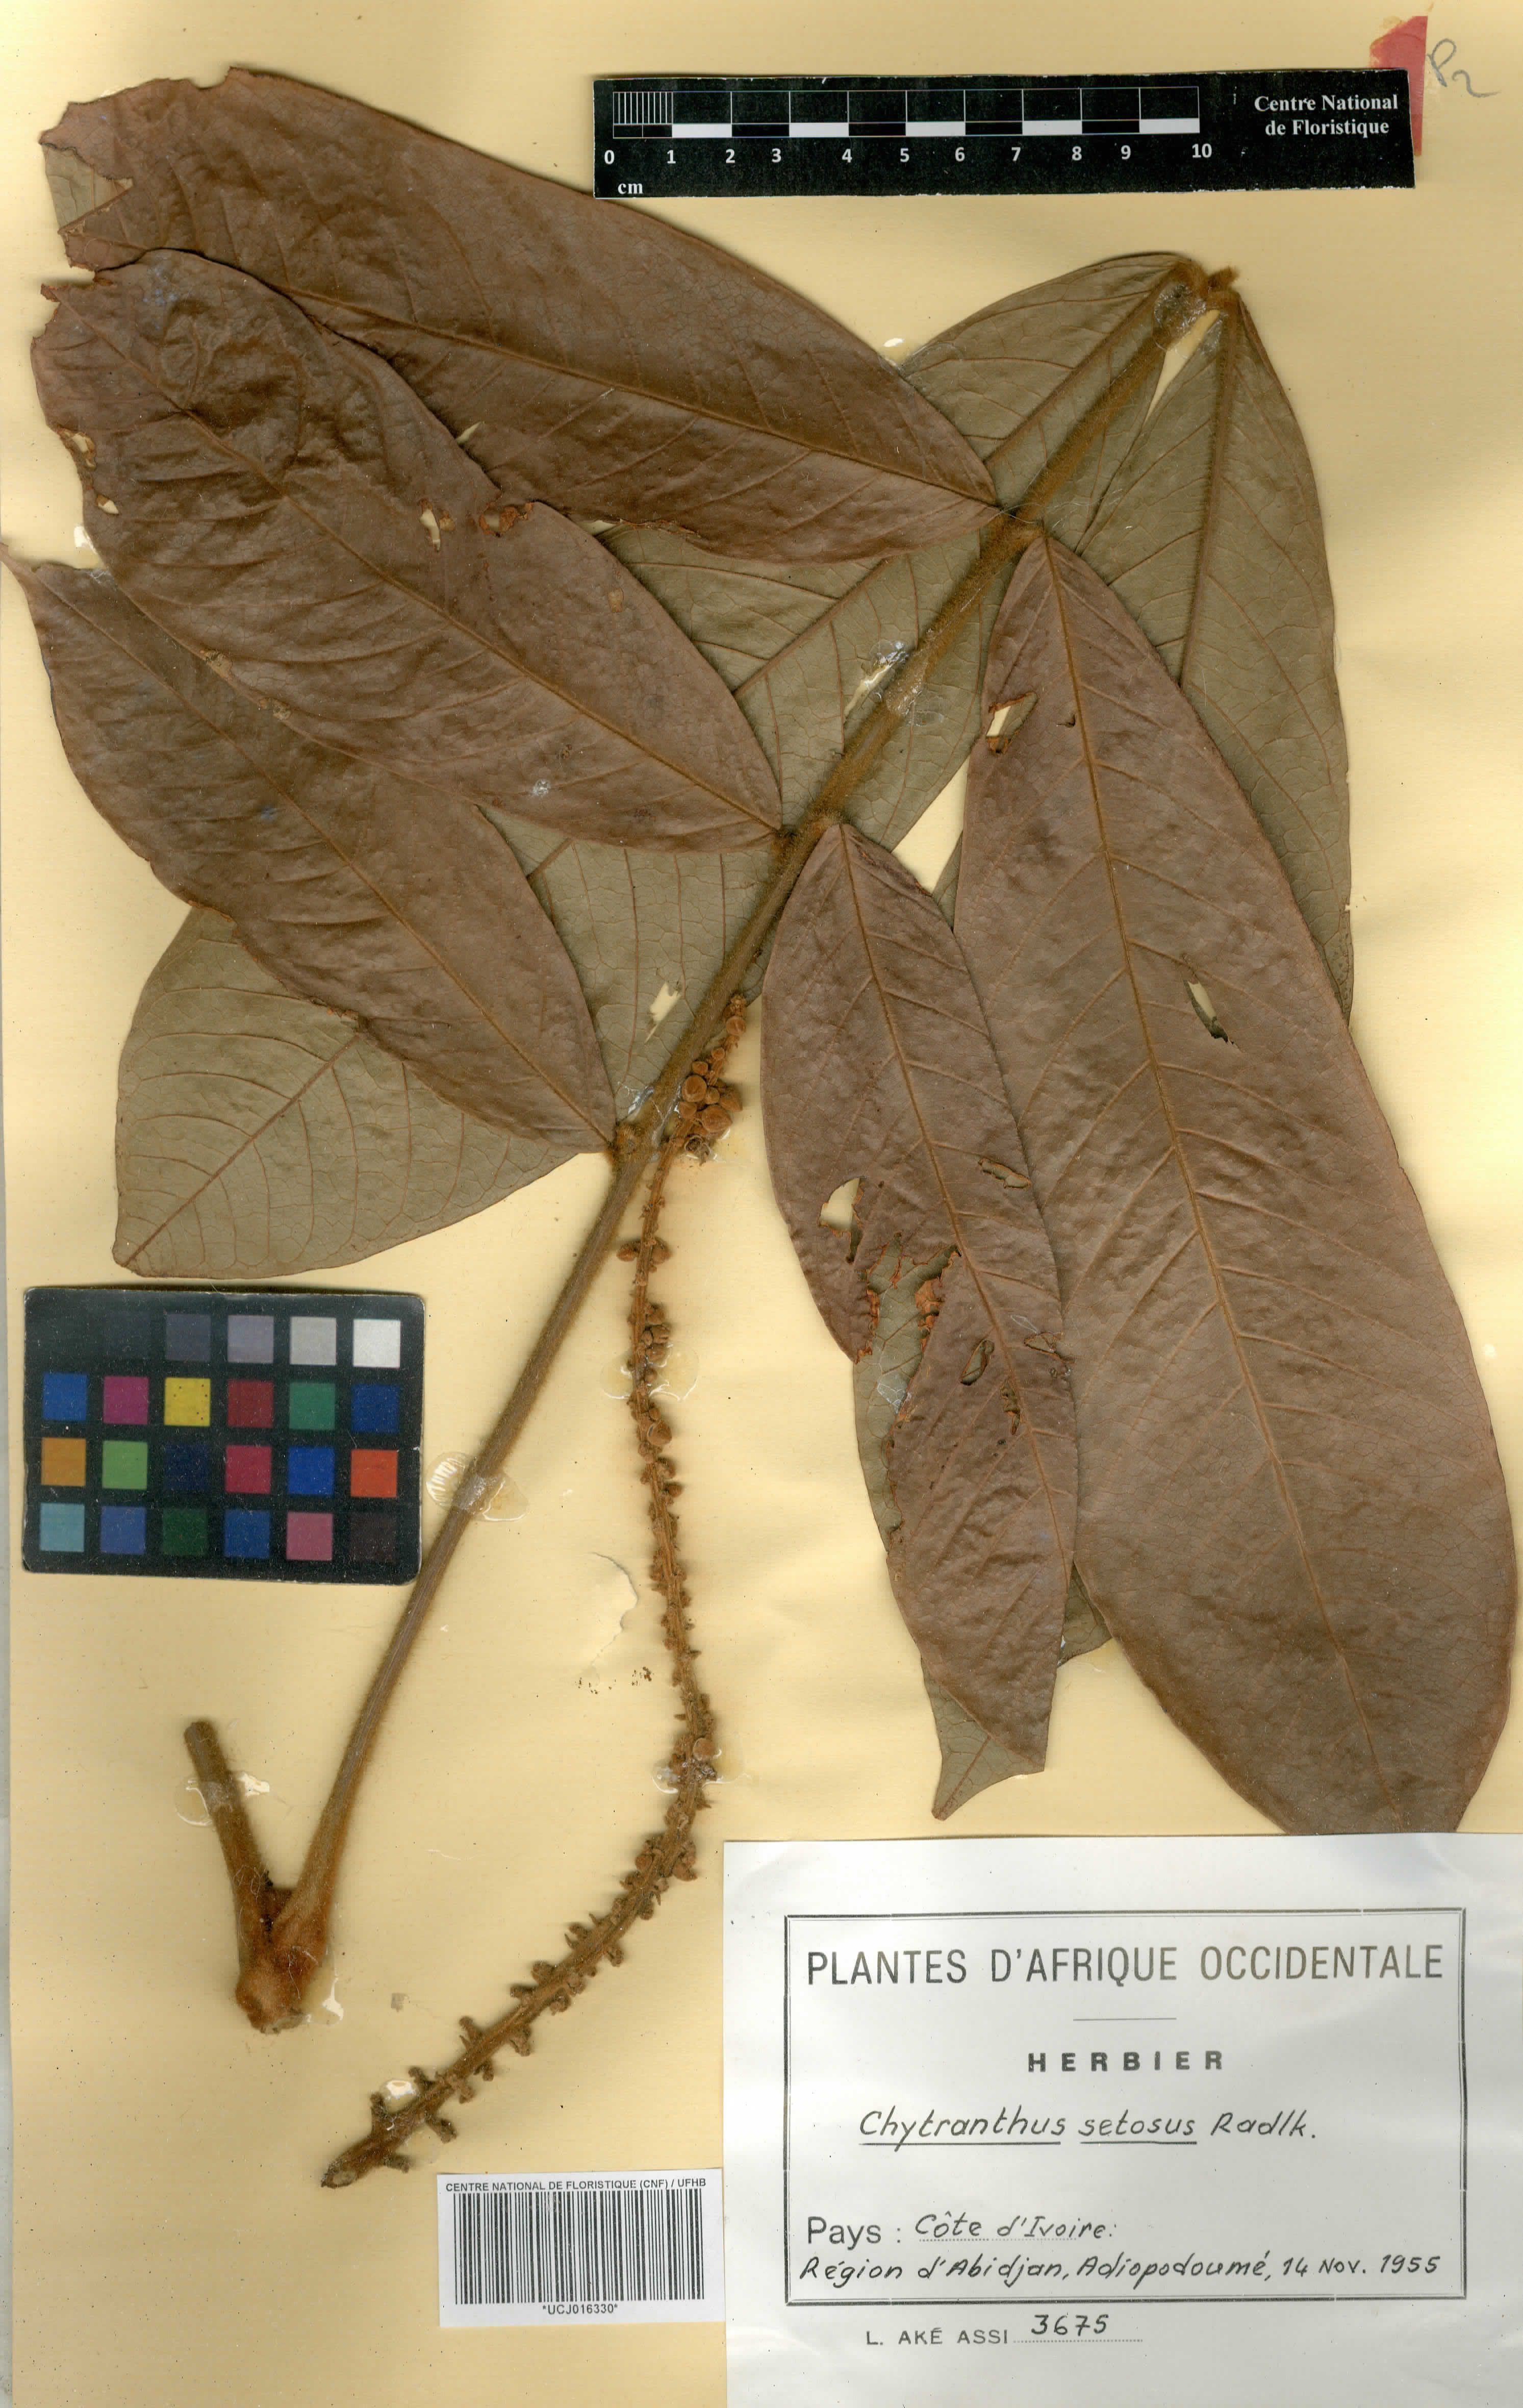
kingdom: Plantae
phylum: Tracheophyta
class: Magnoliopsida
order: Sapindales
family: Sapindaceae
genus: Chytranthus
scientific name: Chytranthus setosus
